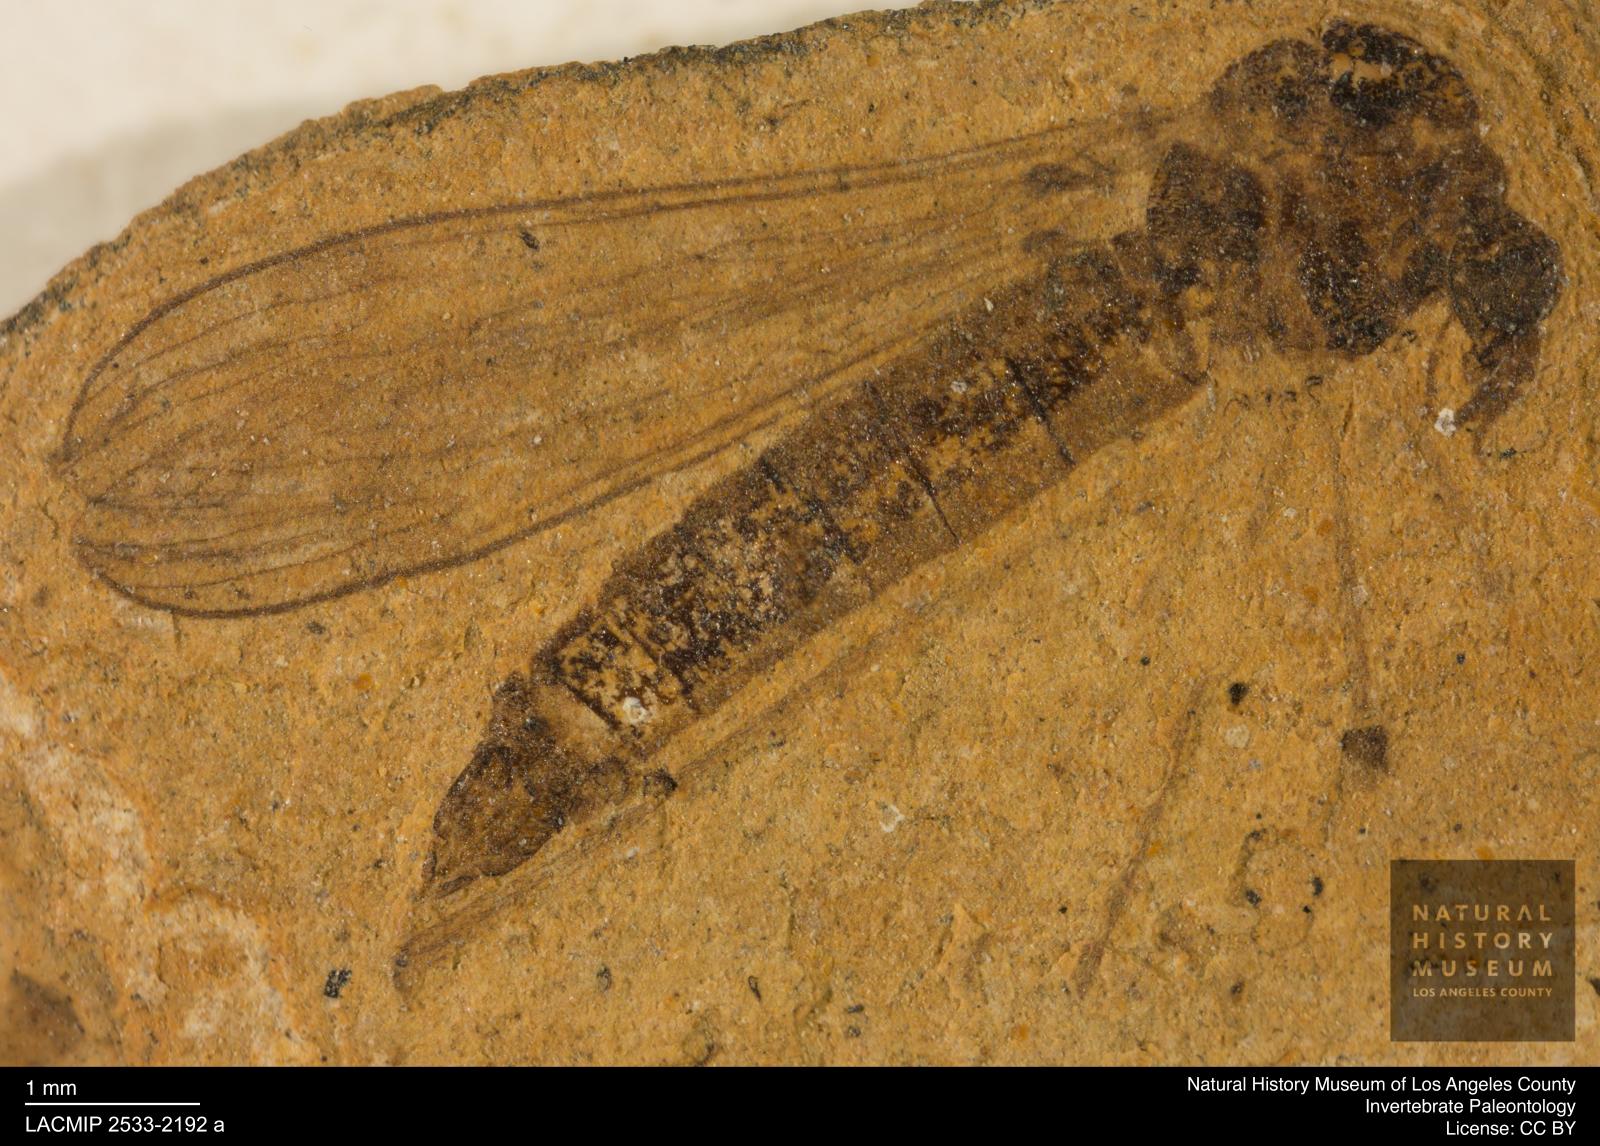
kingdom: Animalia
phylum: Arthropoda
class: Insecta
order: Diptera
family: Limoniidae
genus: Limnophila
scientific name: Limnophila
